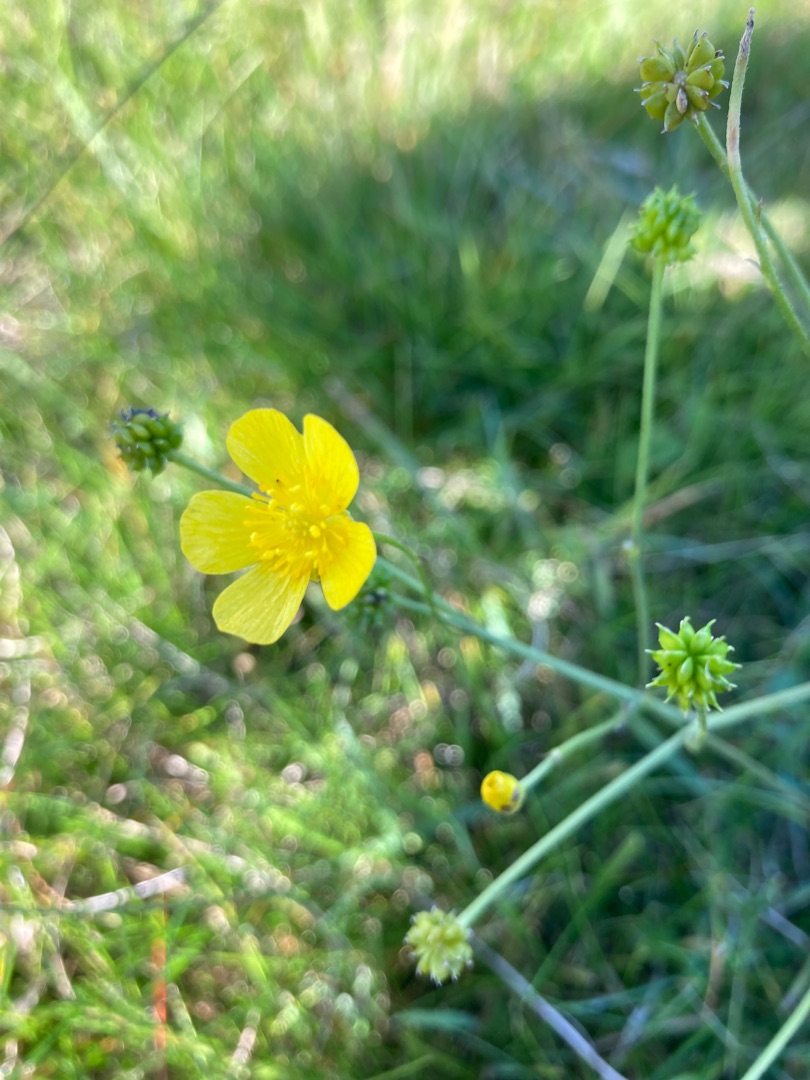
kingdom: Plantae
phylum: Tracheophyta
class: Magnoliopsida
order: Ranunculales
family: Ranunculaceae
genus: Ranunculus
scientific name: Ranunculus
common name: Ranunkelslægten
